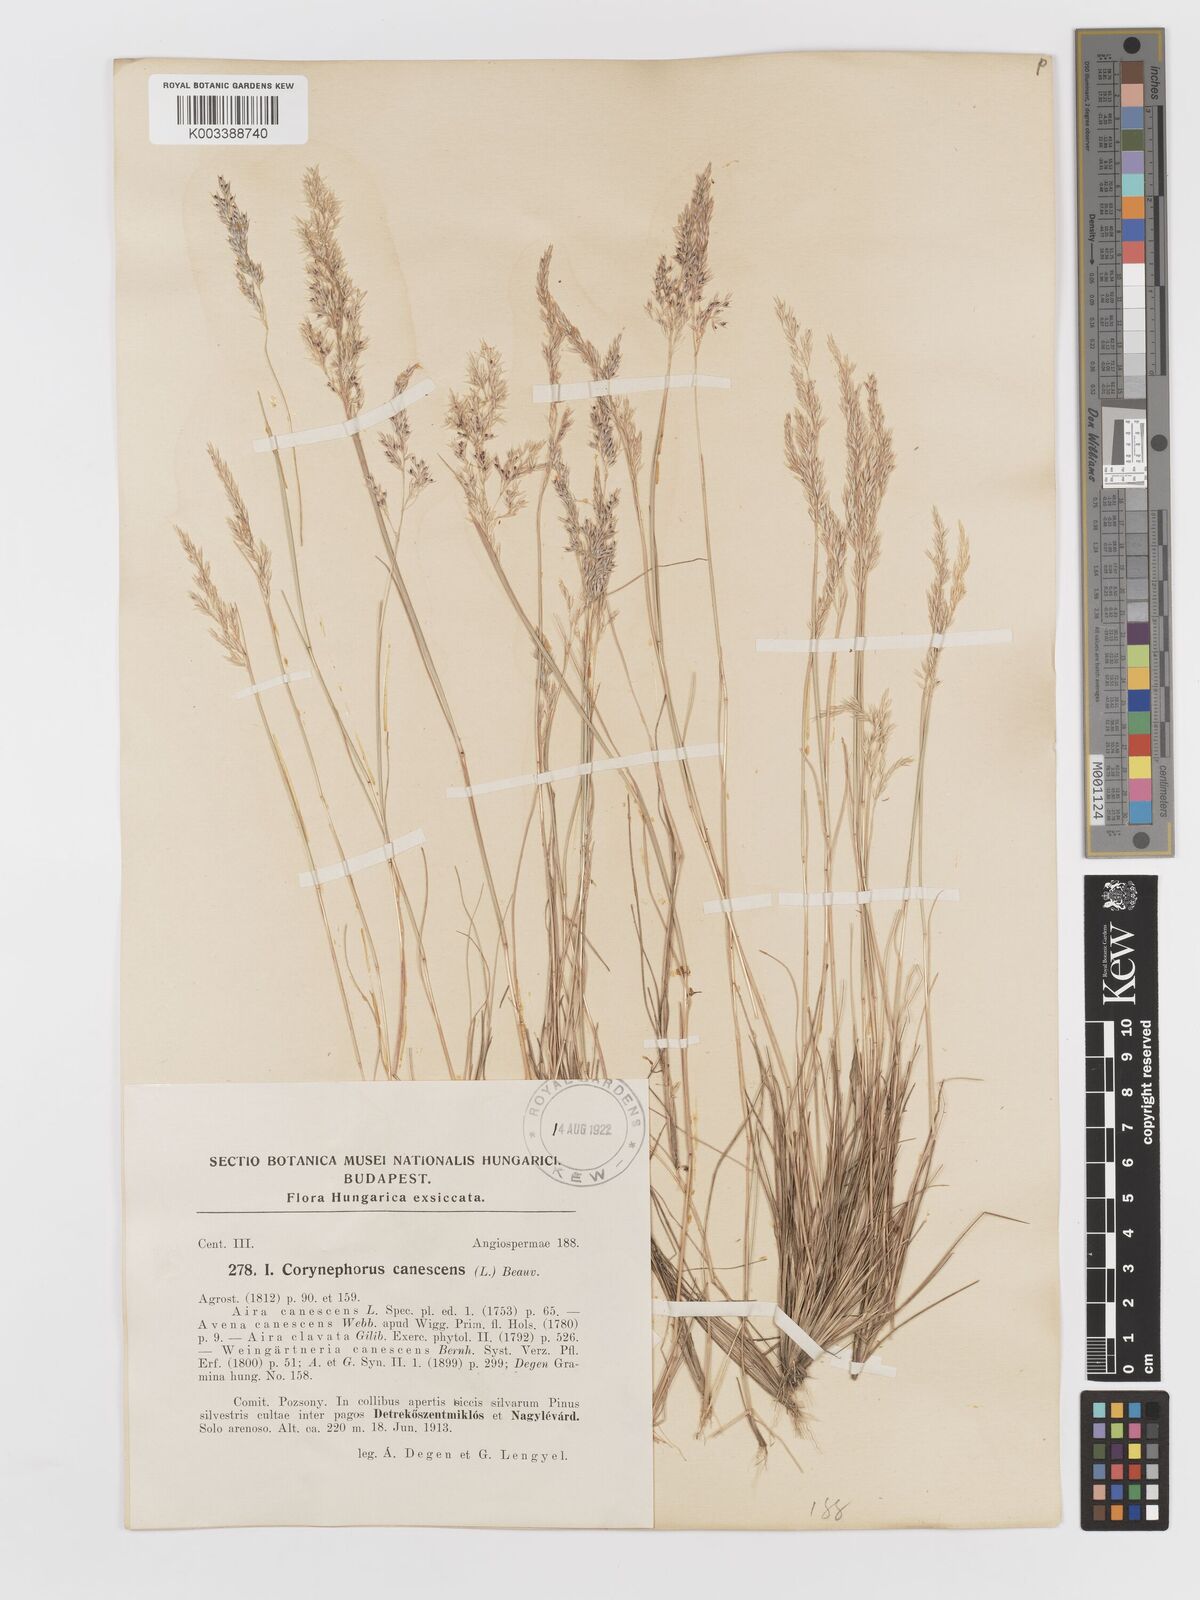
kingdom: Plantae
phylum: Tracheophyta
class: Liliopsida
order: Poales
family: Poaceae
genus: Corynephorus
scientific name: Corynephorus canescens
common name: Grey hair-grass
